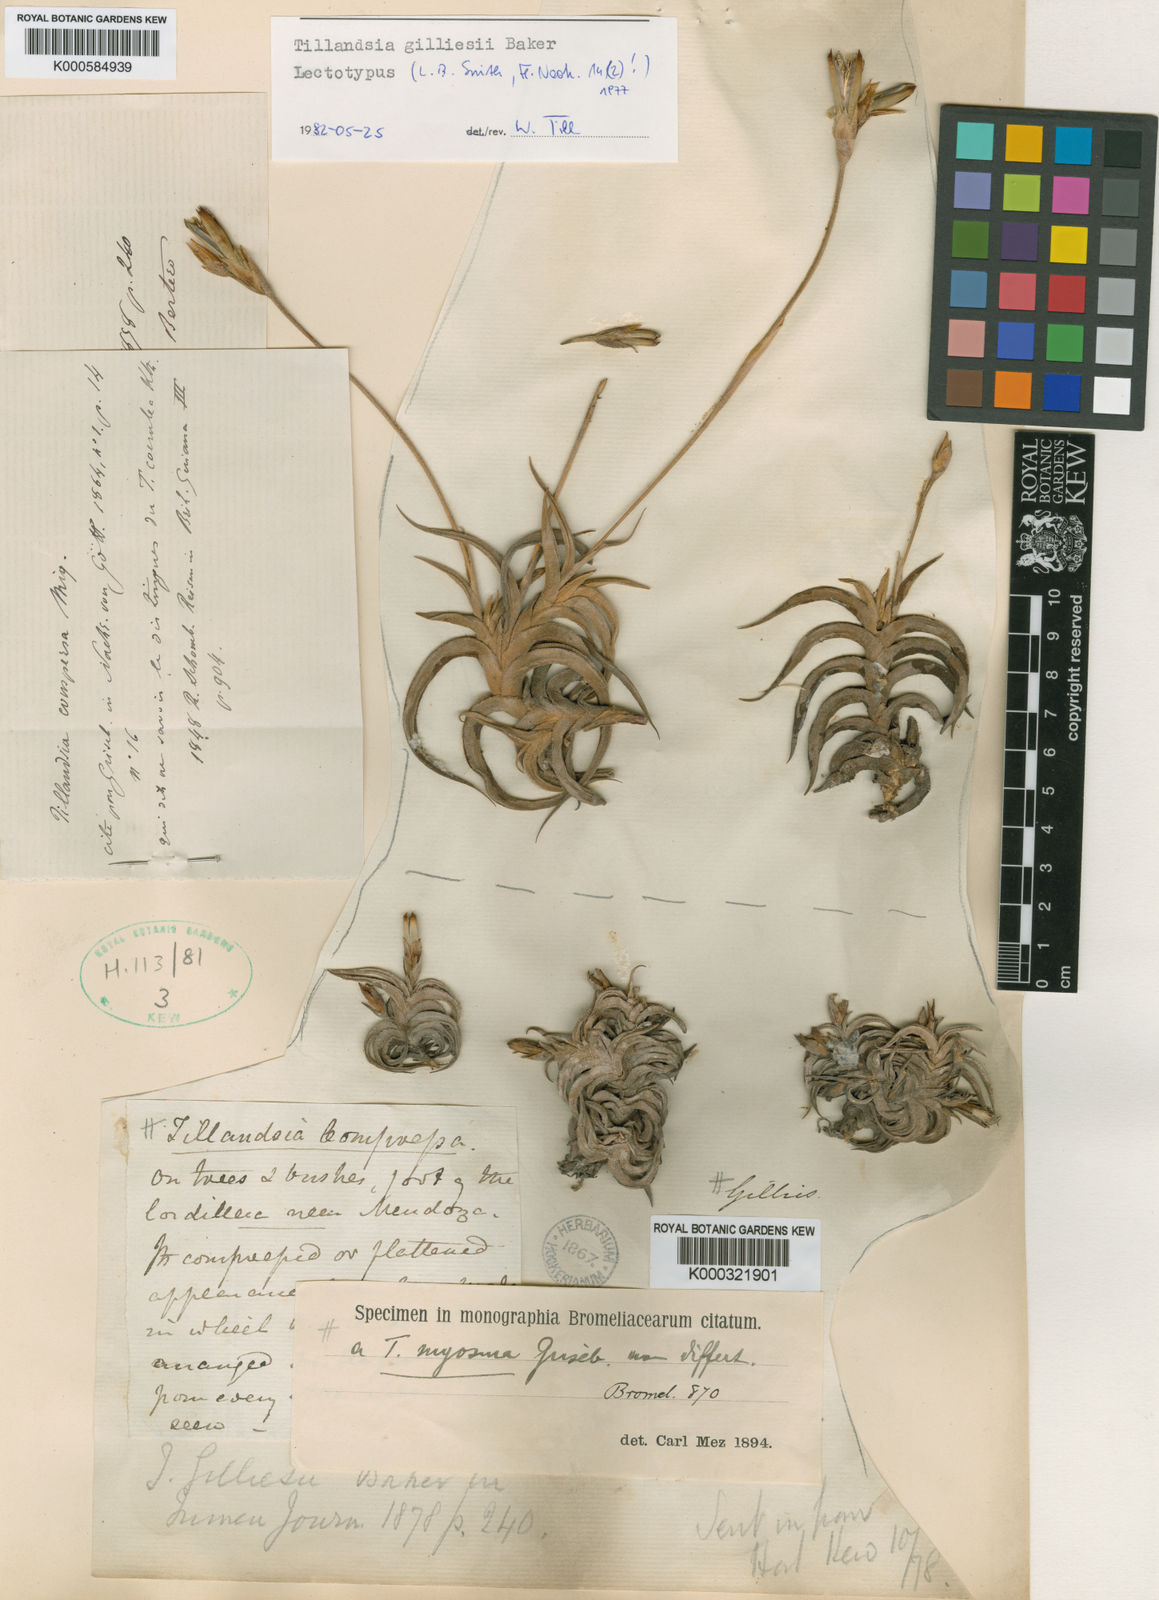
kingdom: Plantae
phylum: Tracheophyta
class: Liliopsida
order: Poales
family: Bromeliaceae
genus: Tillandsia
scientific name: Tillandsia gilliesii
